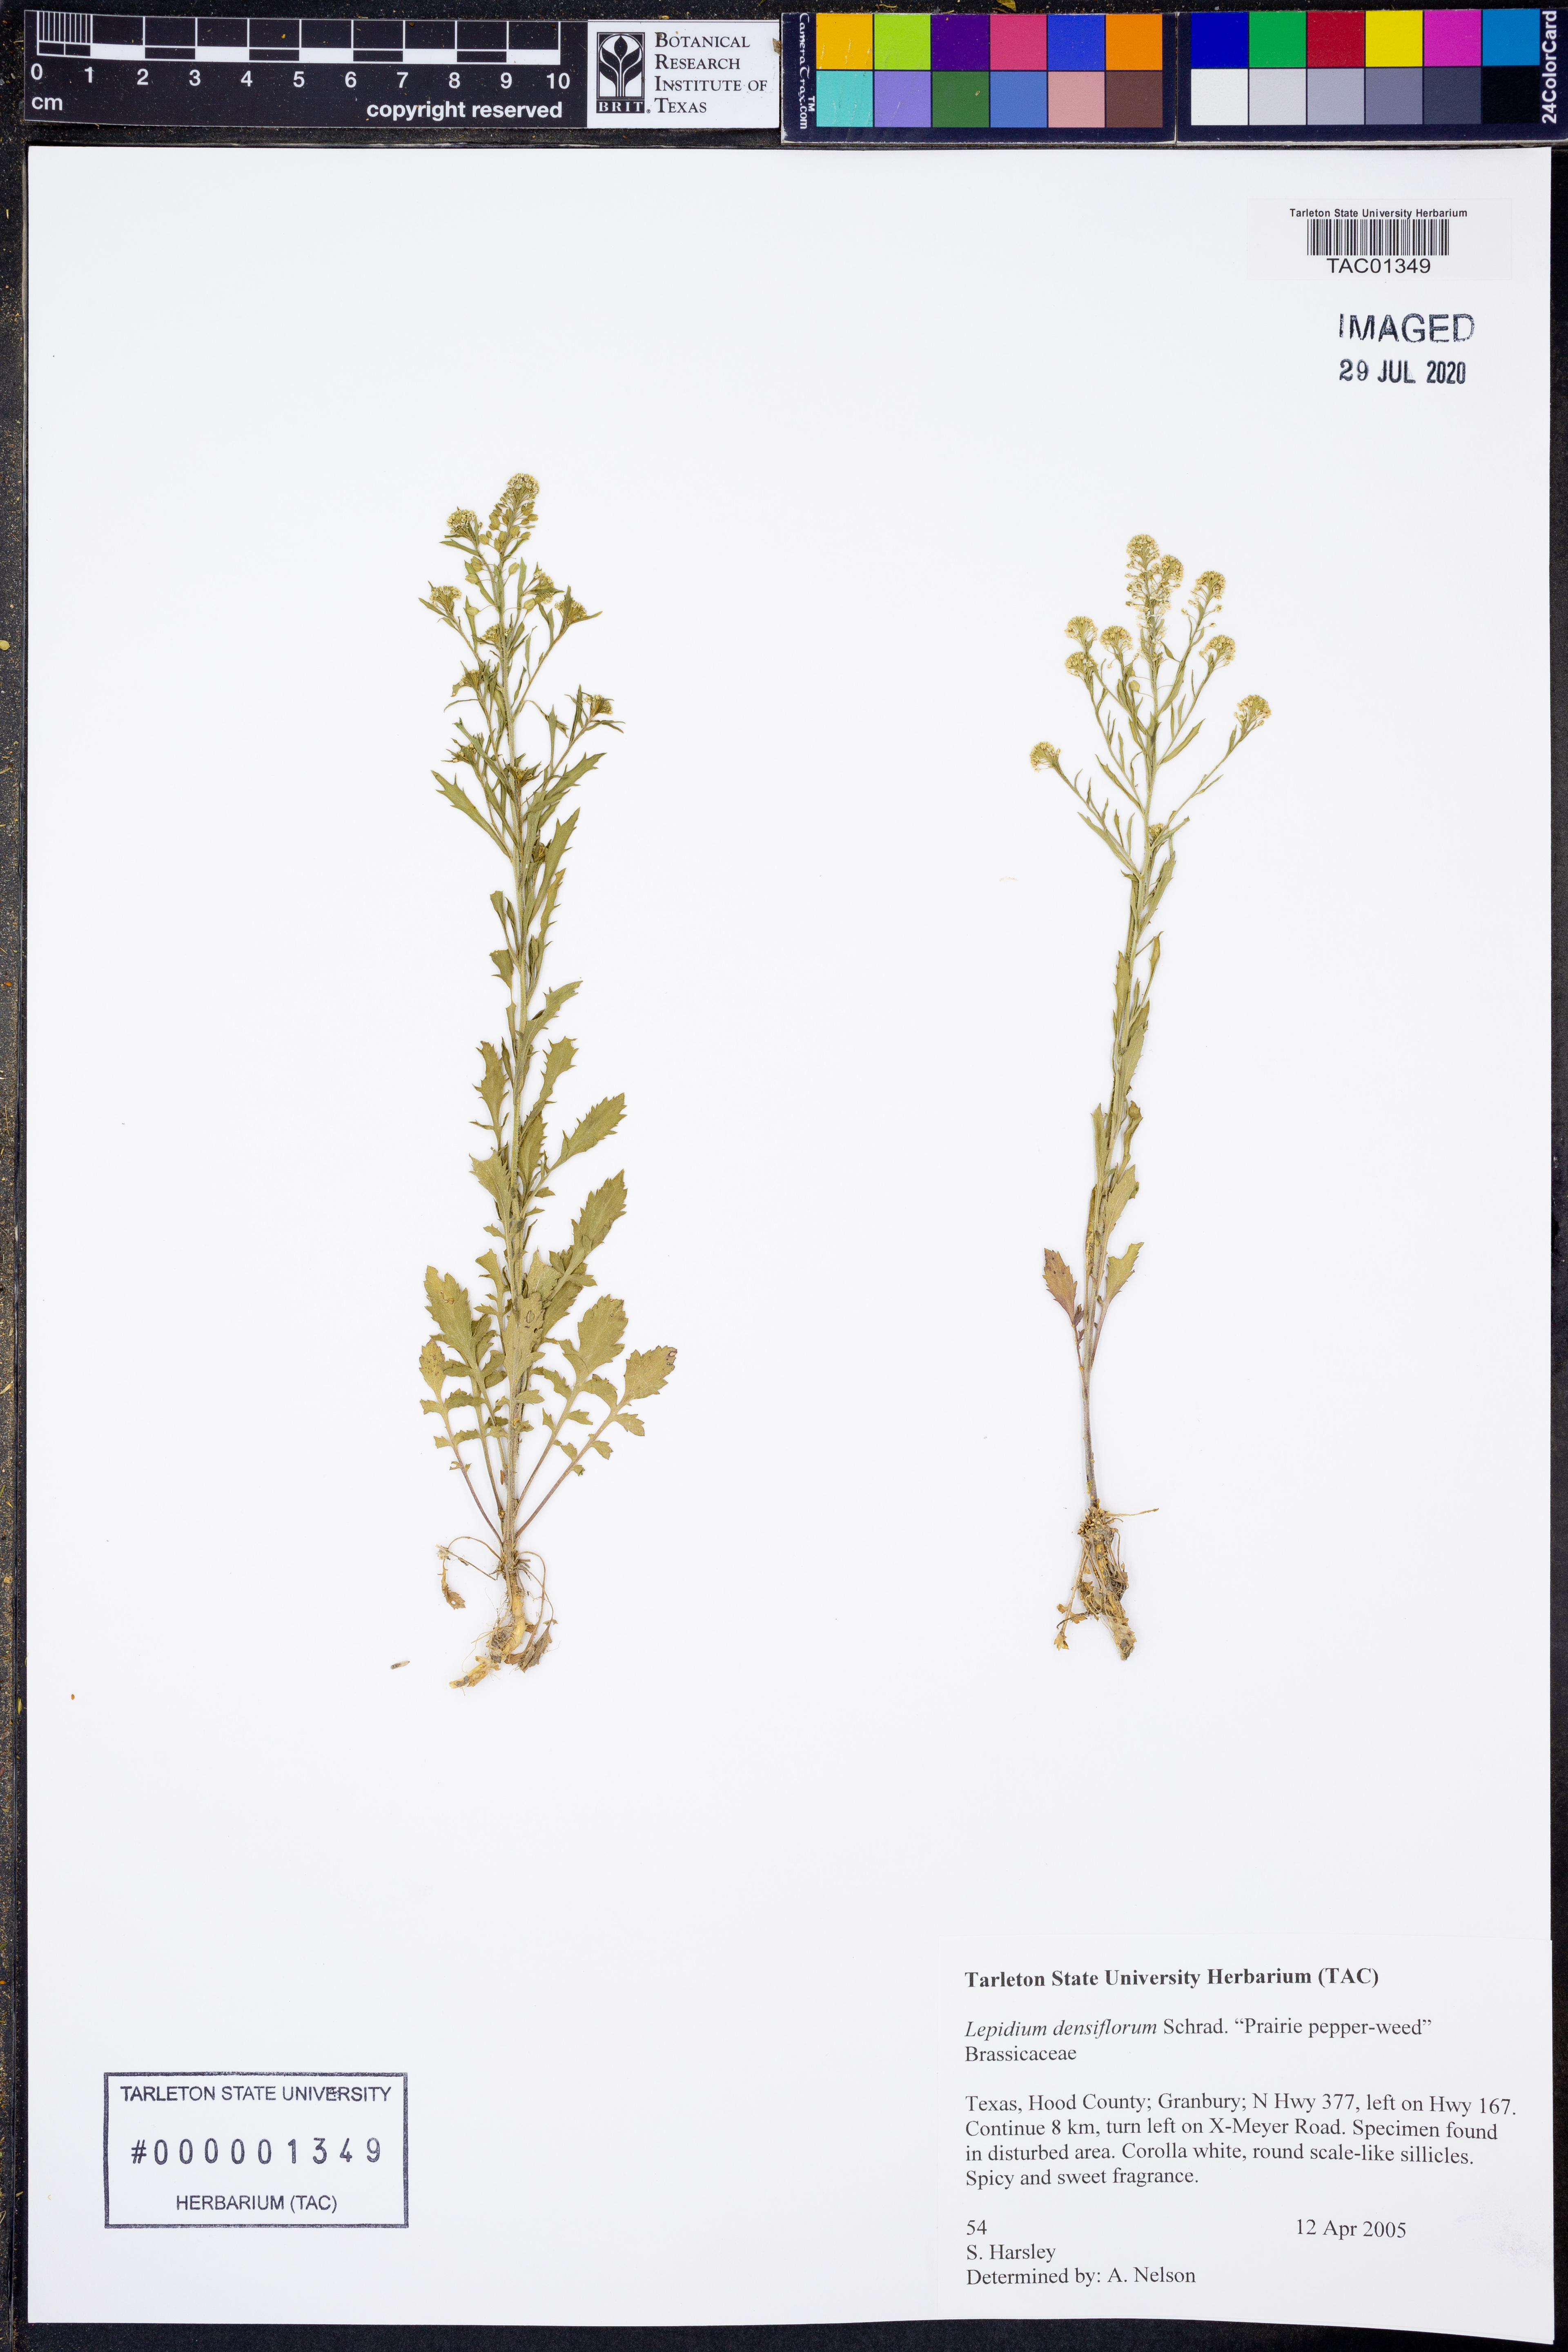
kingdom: Plantae
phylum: Tracheophyta
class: Magnoliopsida
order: Brassicales
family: Brassicaceae
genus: Lepidium
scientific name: Lepidium densiflorum
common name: Miner's pepperwort
